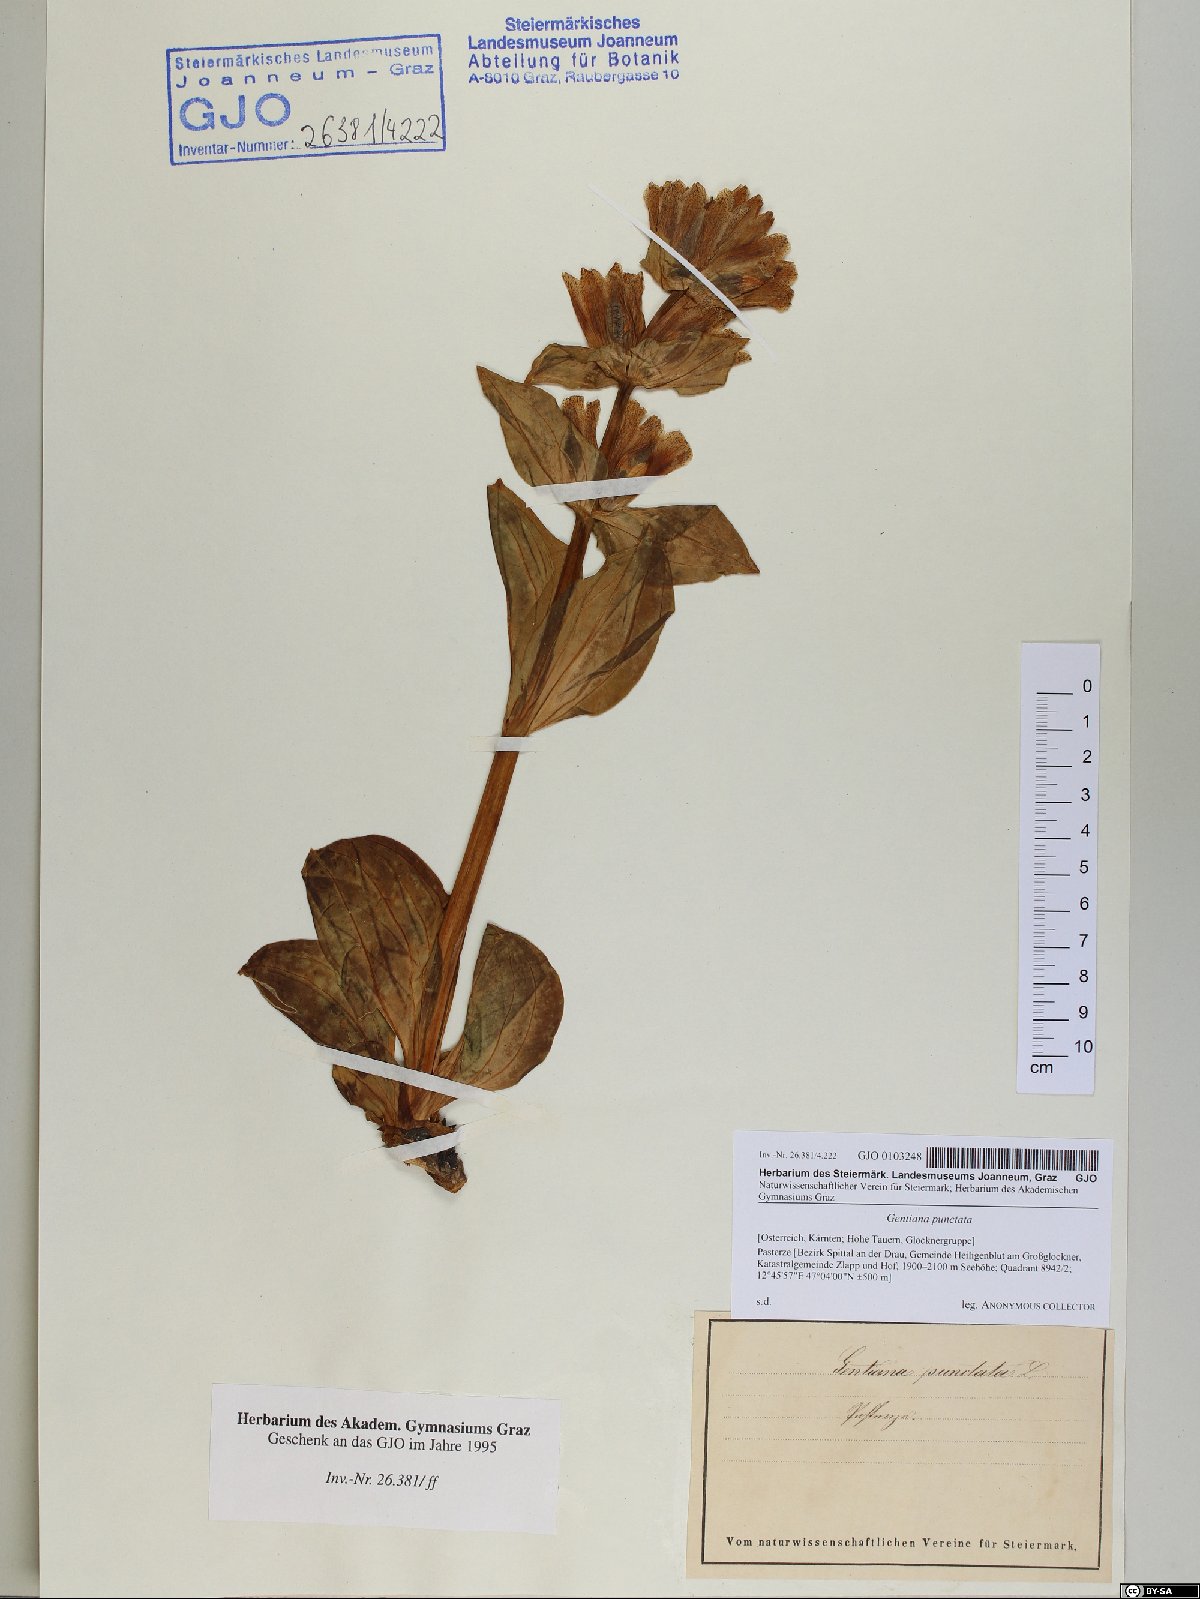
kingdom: Plantae
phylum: Tracheophyta
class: Magnoliopsida
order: Gentianales
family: Gentianaceae
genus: Gentiana
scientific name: Gentiana punctata
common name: Spotted gentian
